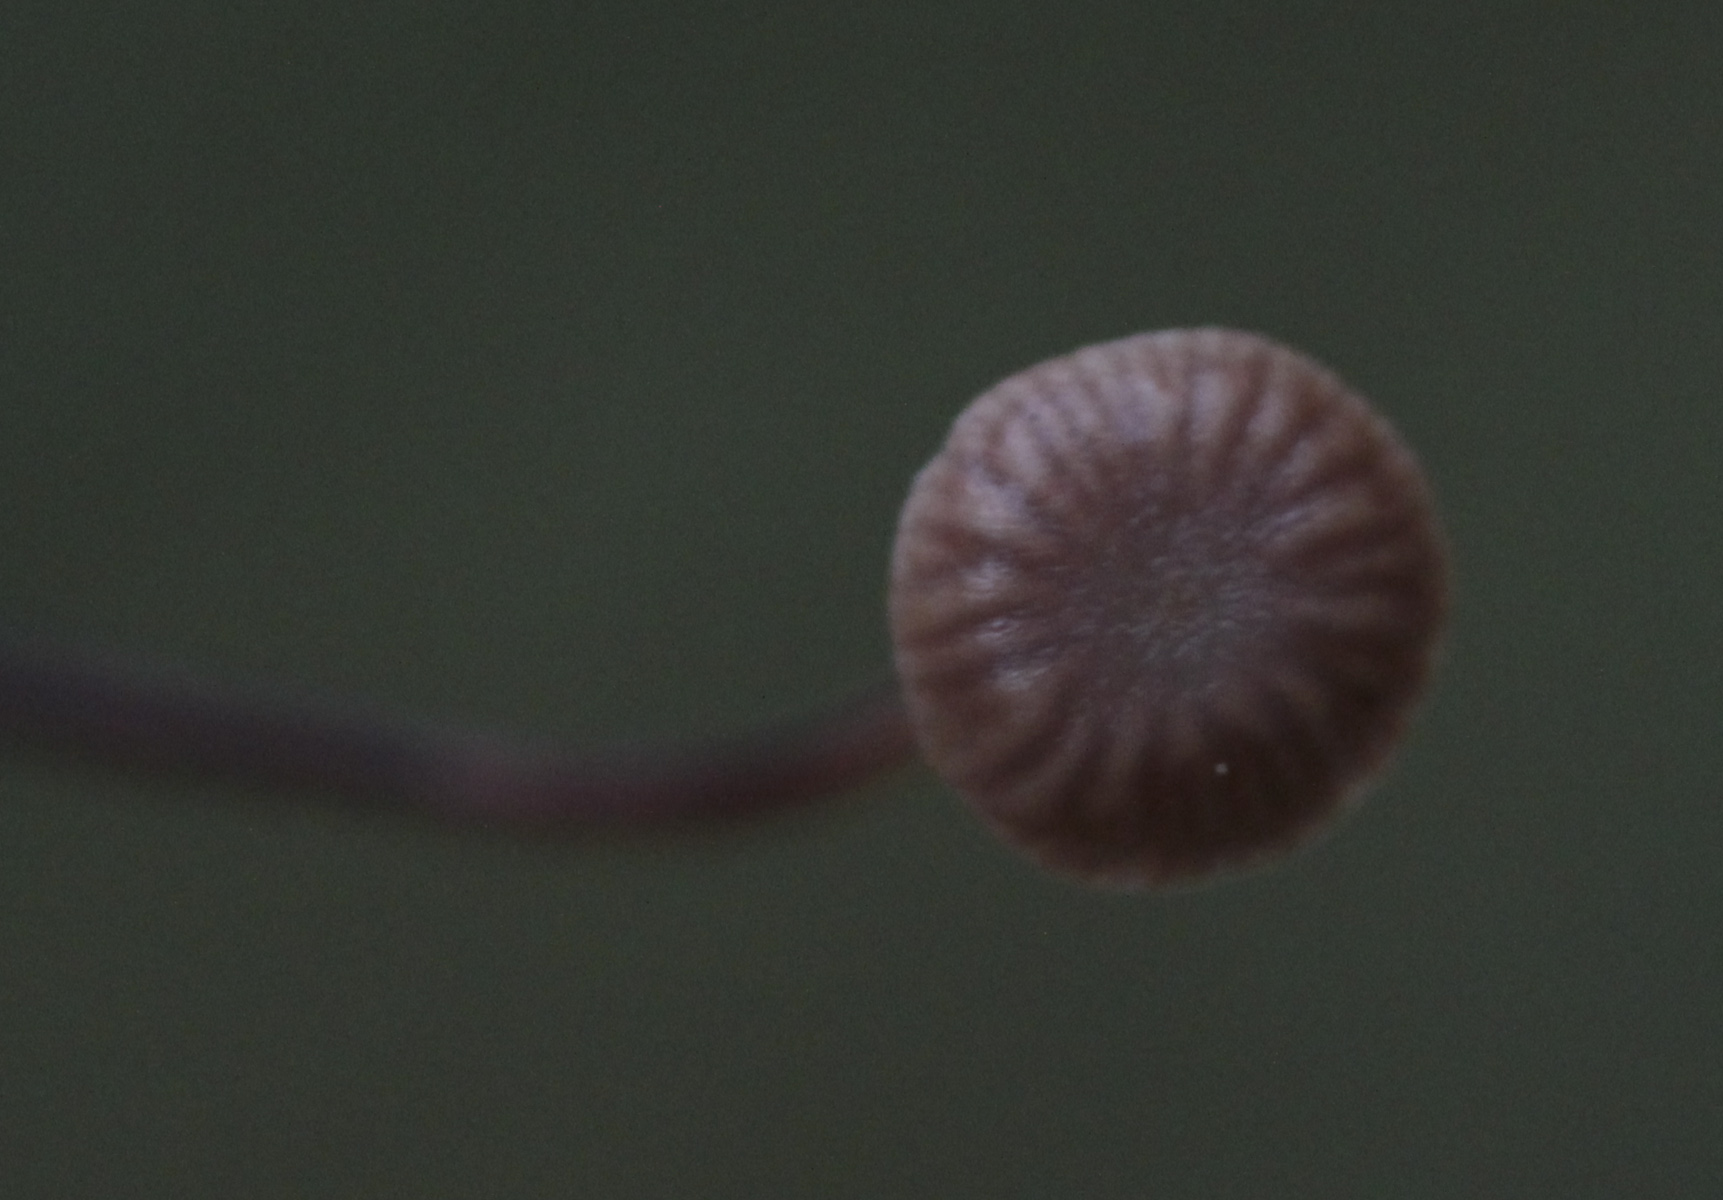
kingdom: Fungi
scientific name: Fungi
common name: Fungi
